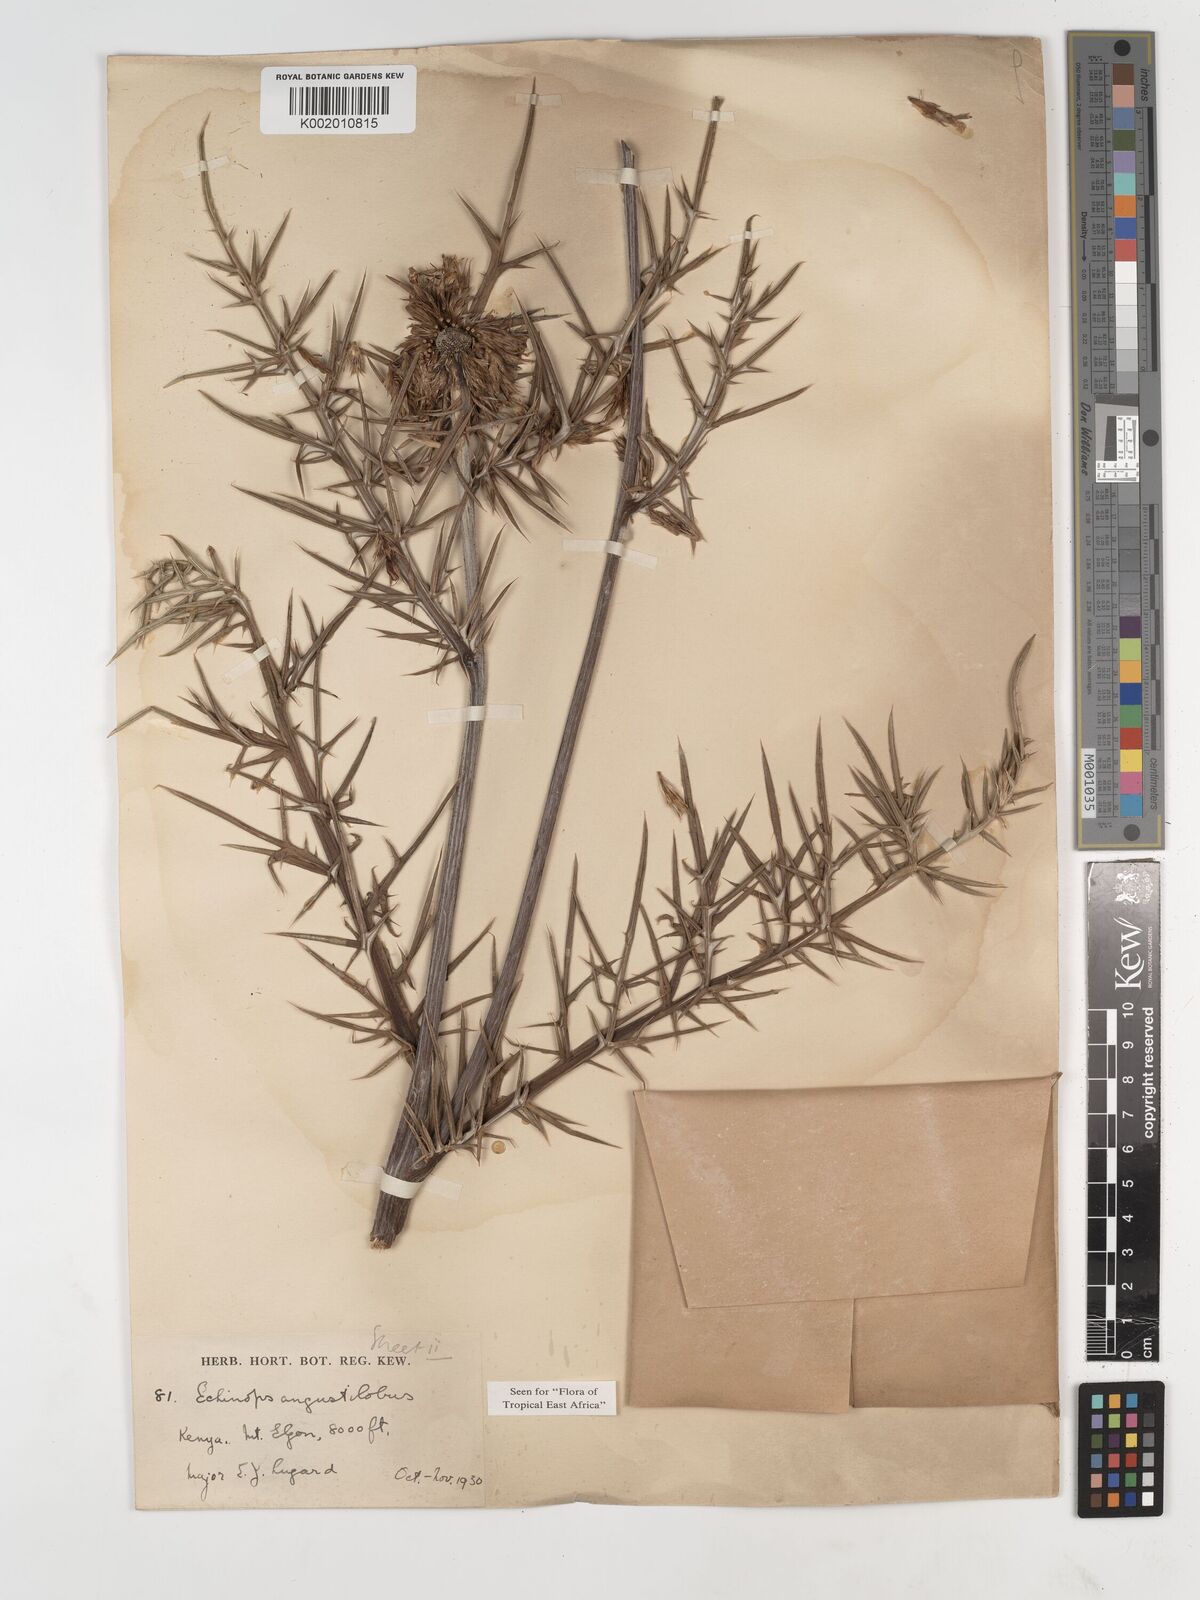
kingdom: Plantae
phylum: Tracheophyta
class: Magnoliopsida
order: Asterales
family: Asteraceae
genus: Echinops
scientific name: Echinops angustilobus
